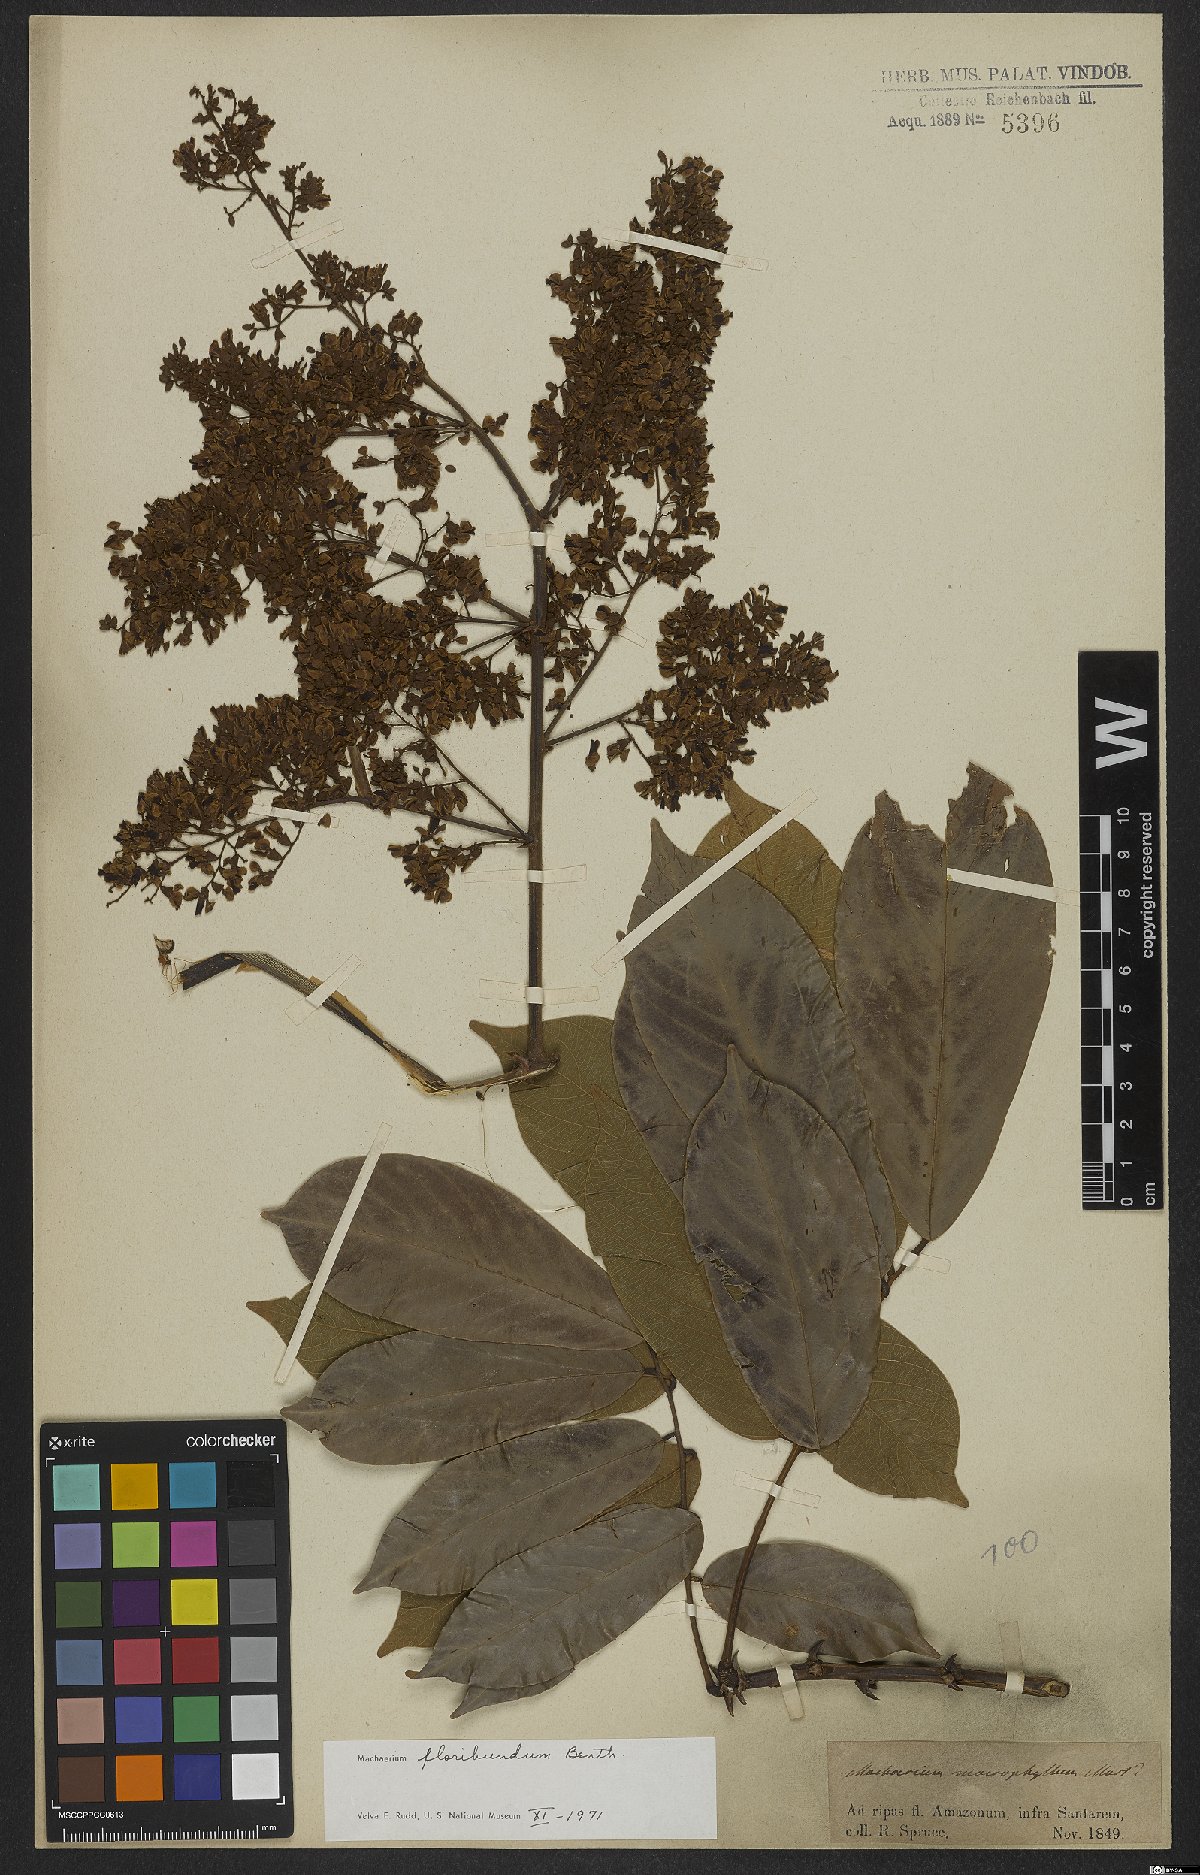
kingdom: Plantae
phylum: Tracheophyta
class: Magnoliopsida
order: Fabales
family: Fabaceae
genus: Machaerium
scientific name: Machaerium floribundum
